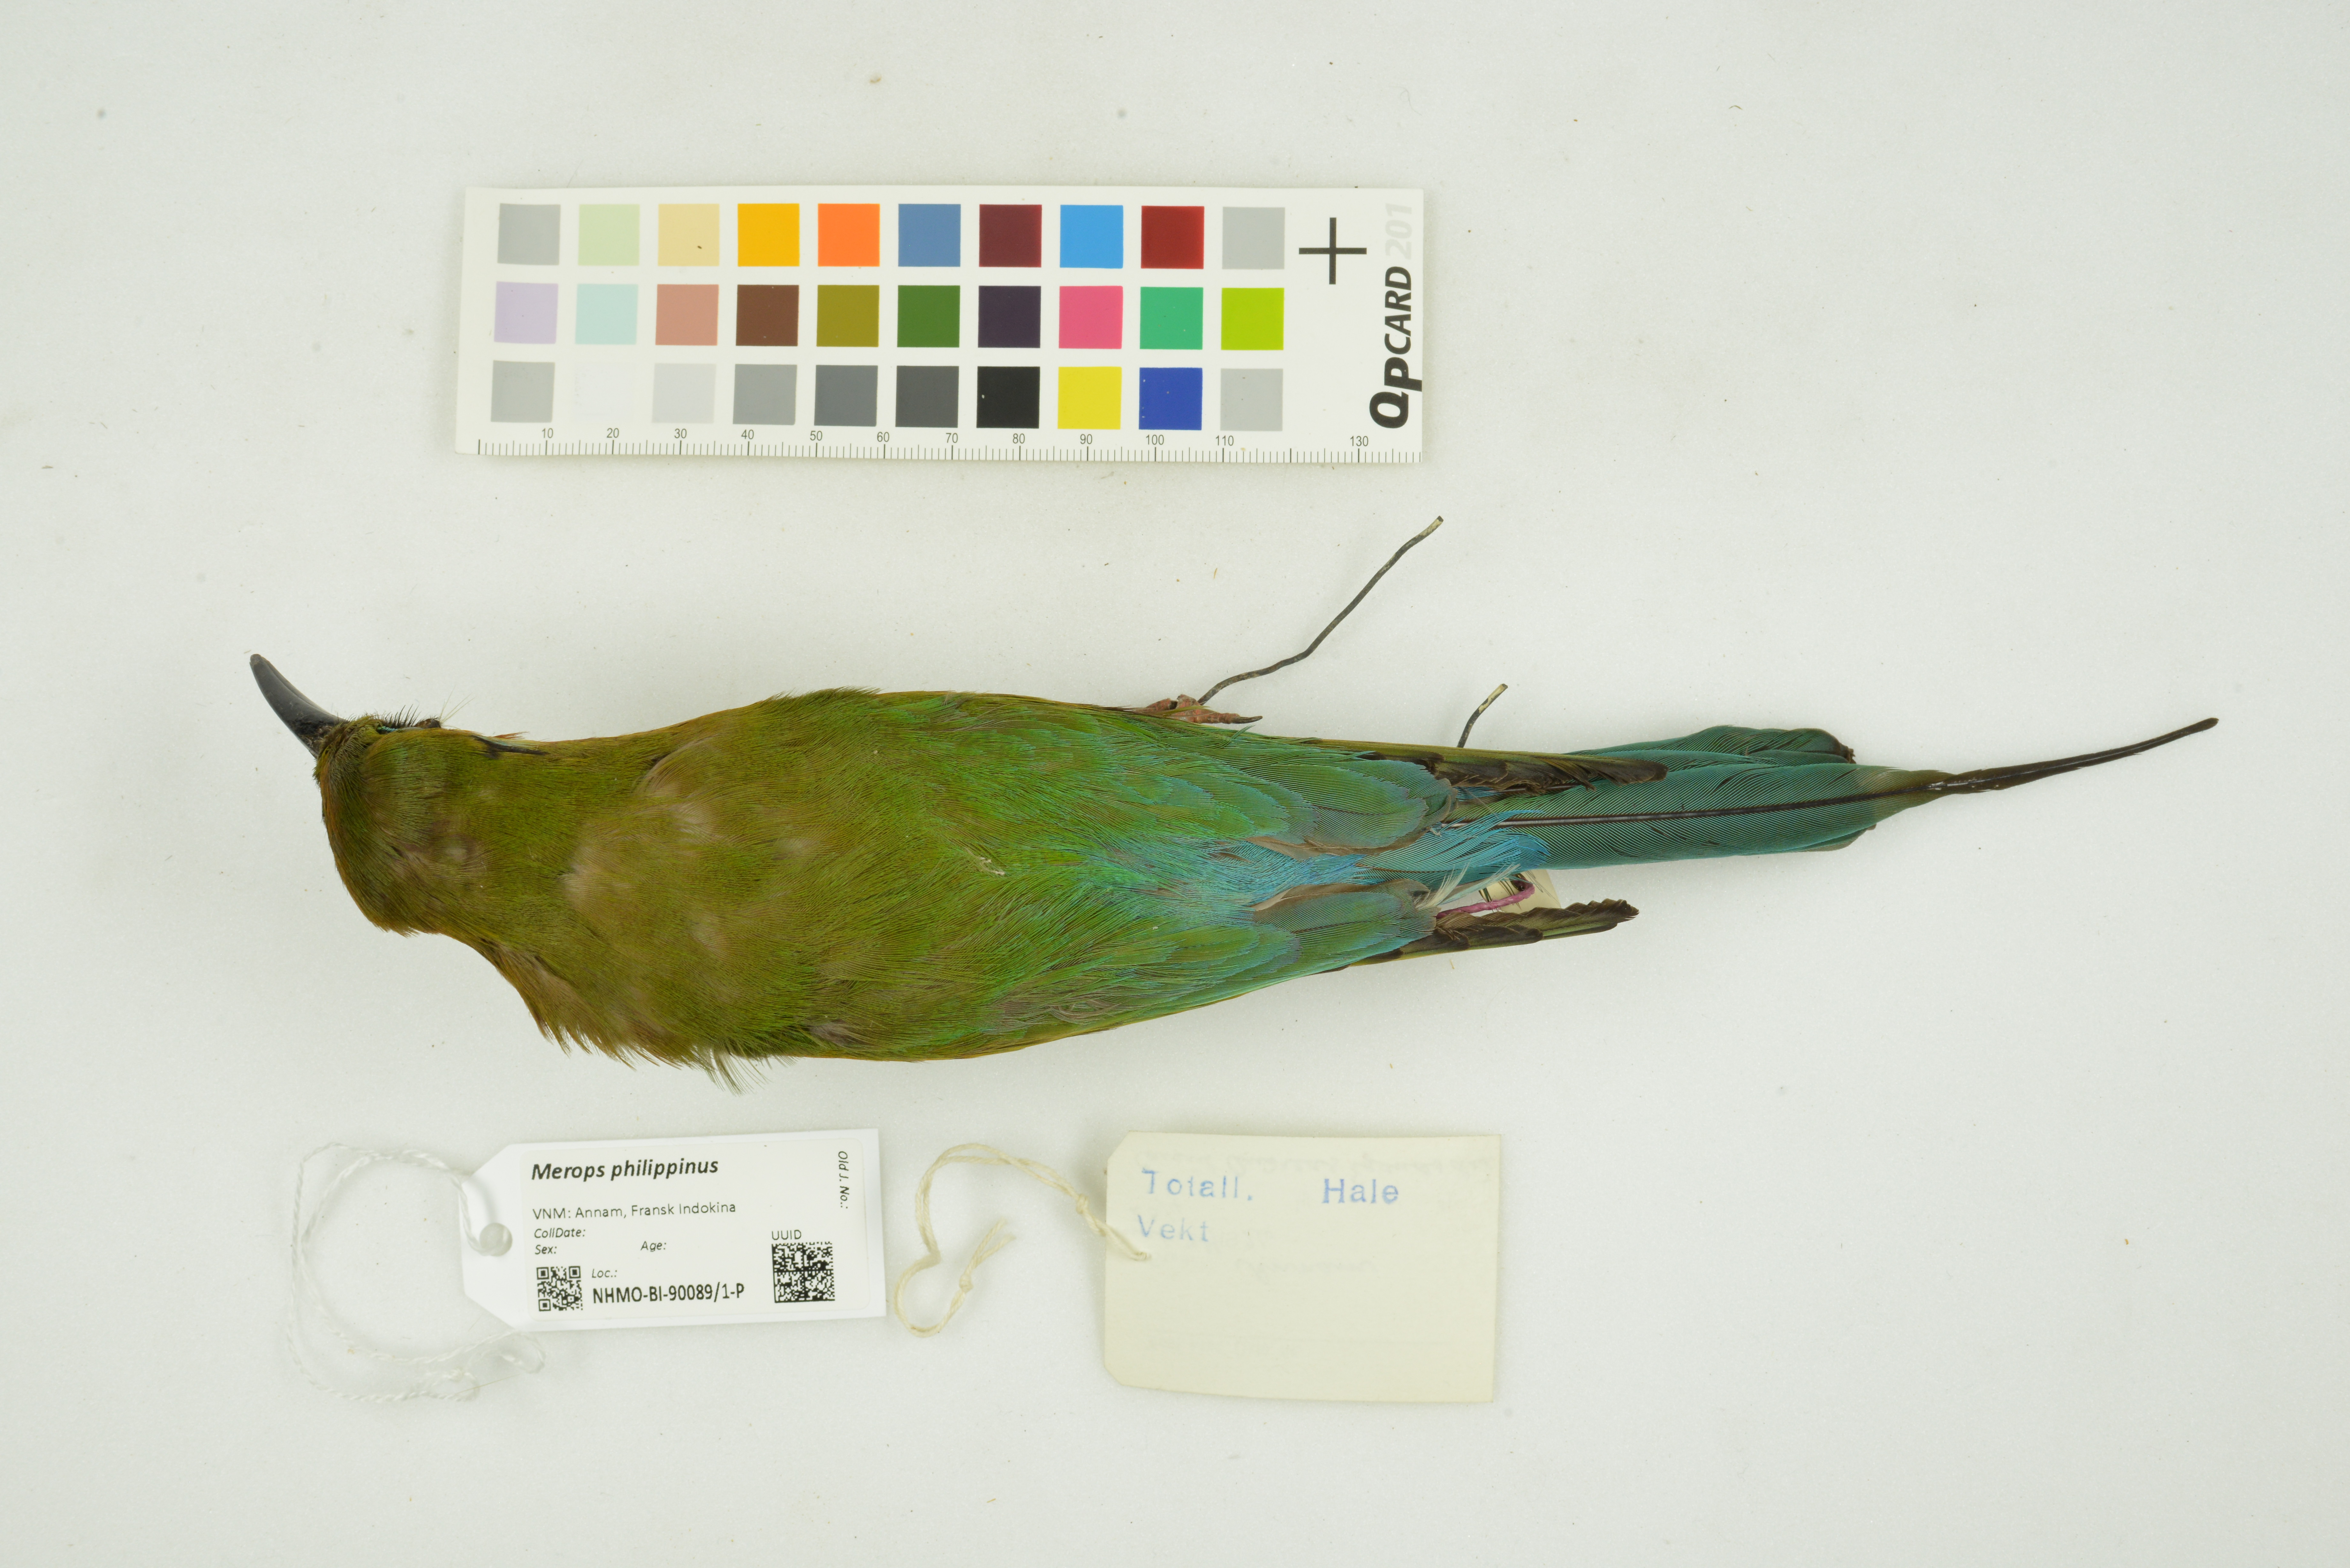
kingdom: Animalia
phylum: Chordata
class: Aves
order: Coraciiformes
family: Meropidae
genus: Merops
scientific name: Merops philippinus
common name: Blue-tailed bee-eater
